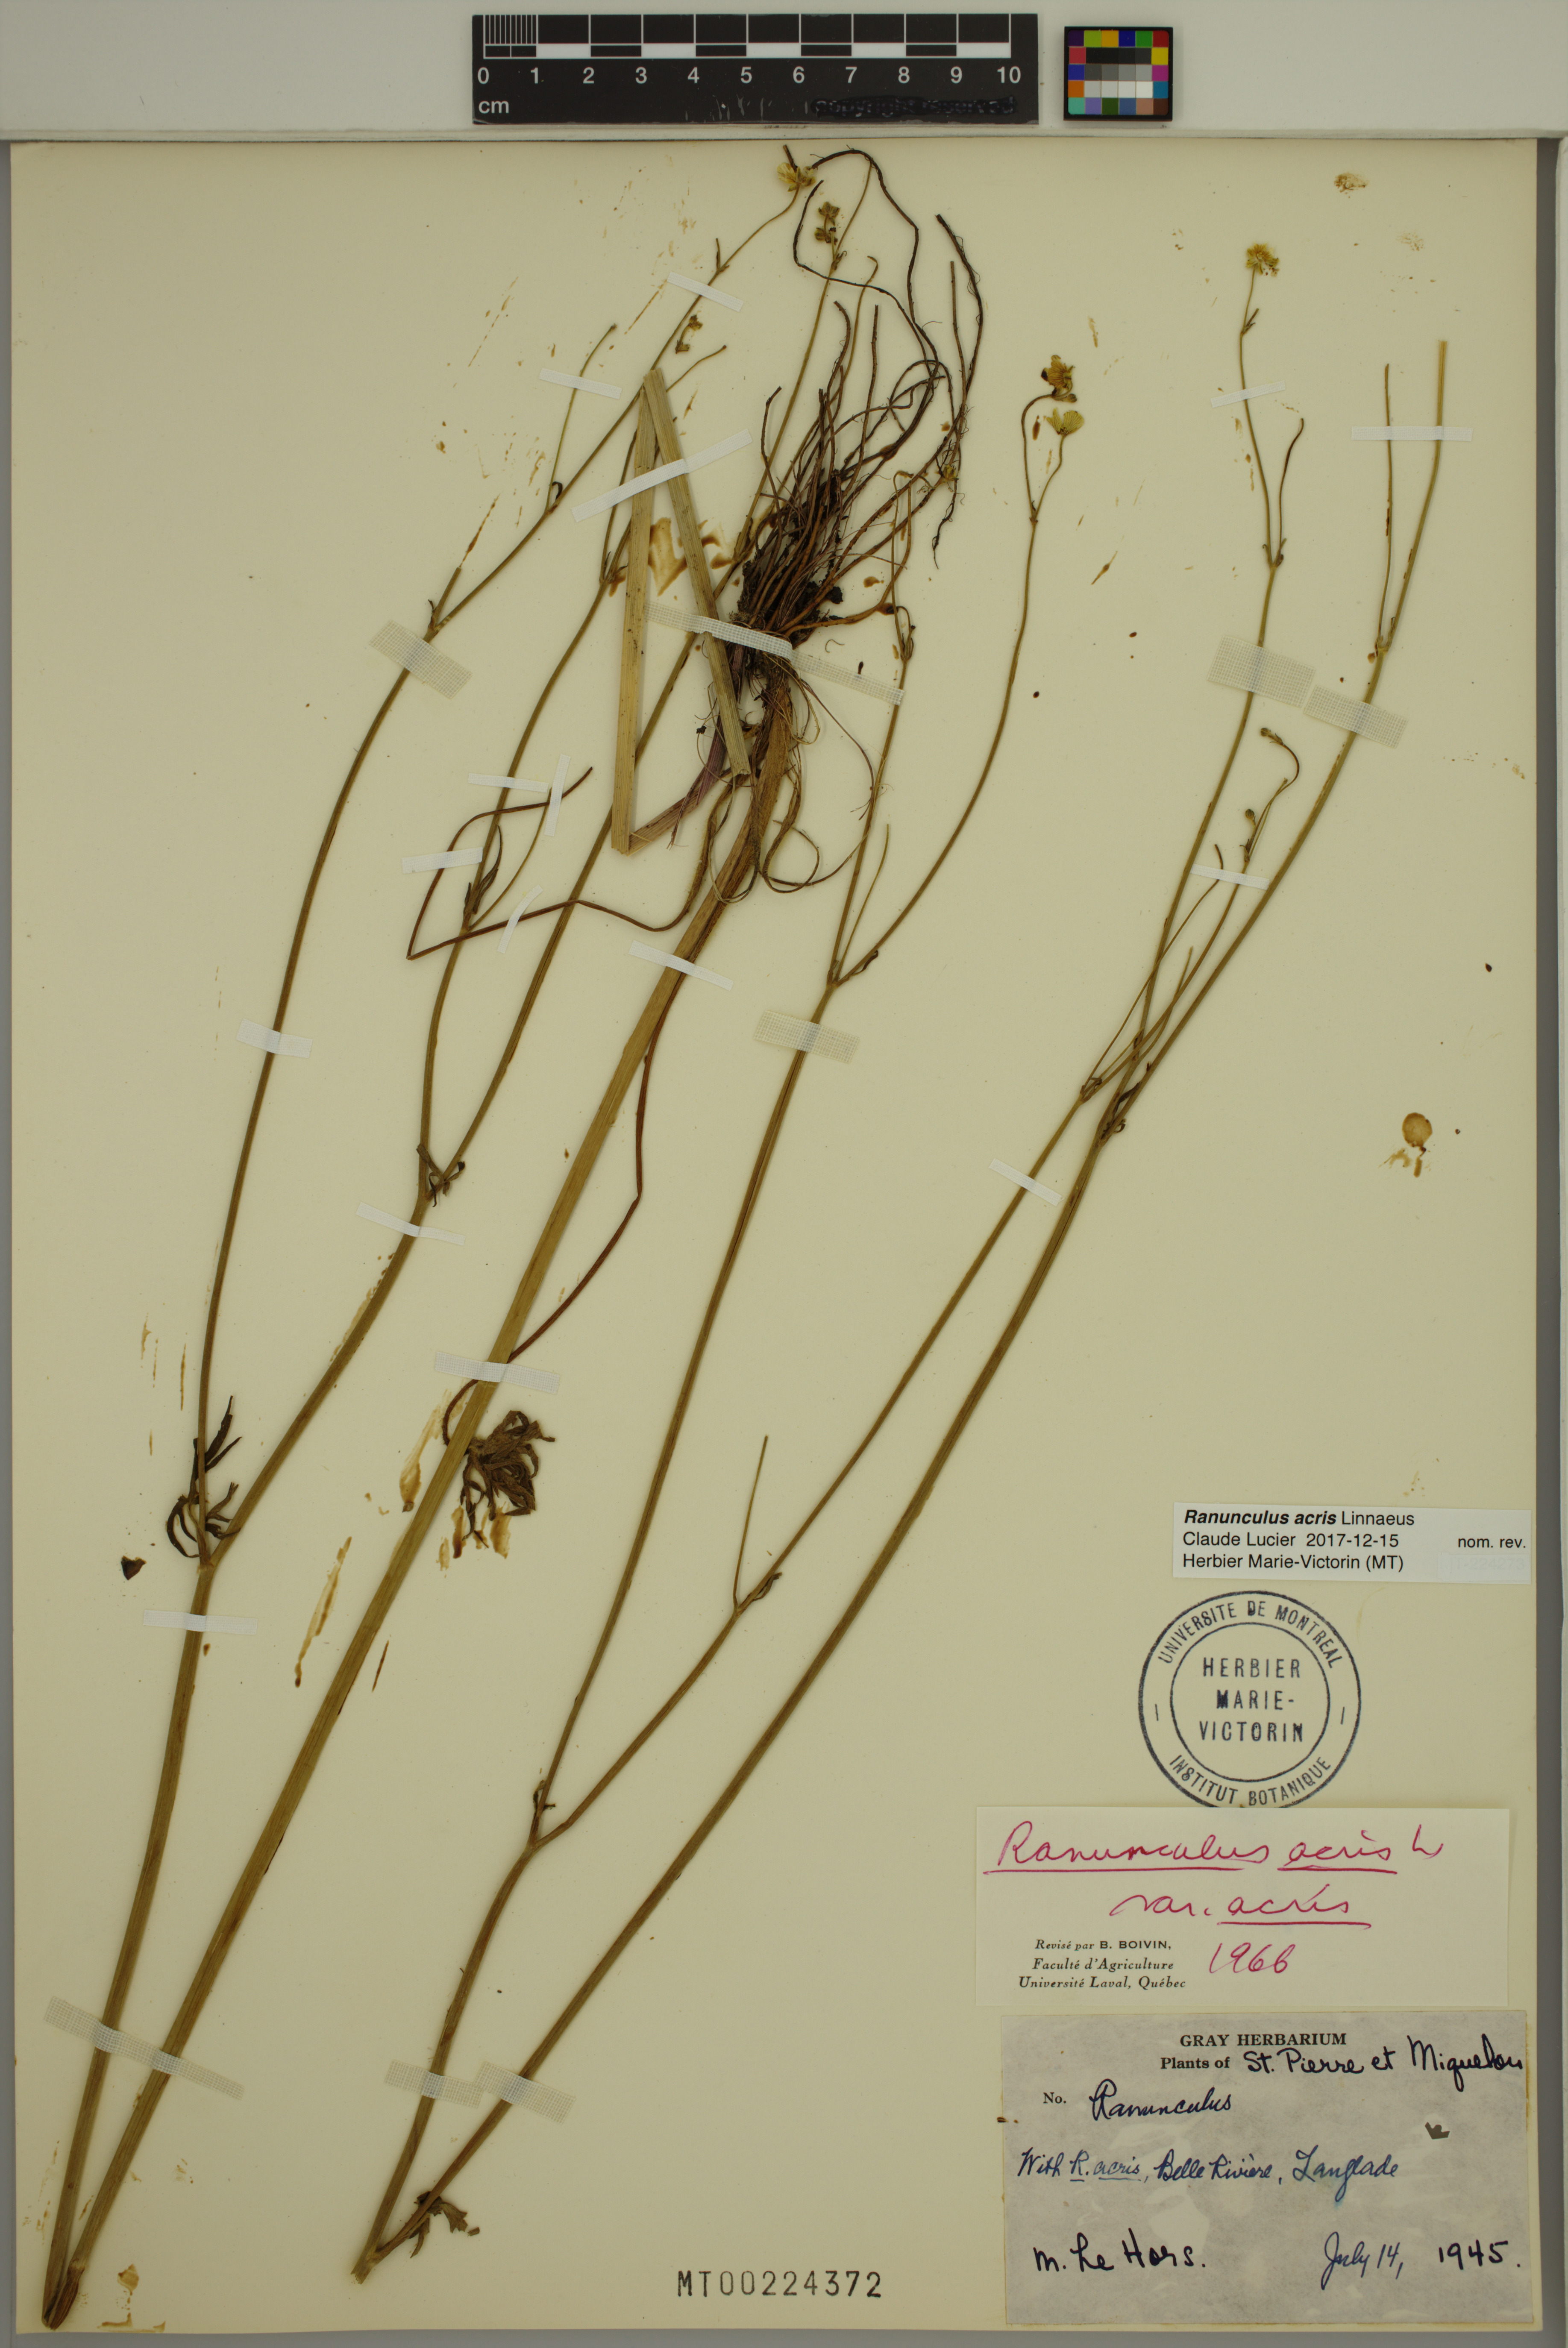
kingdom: Plantae
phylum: Tracheophyta
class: Magnoliopsida
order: Ranunculales
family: Ranunculaceae
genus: Ranunculus
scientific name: Ranunculus acris
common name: Meadow buttercup
